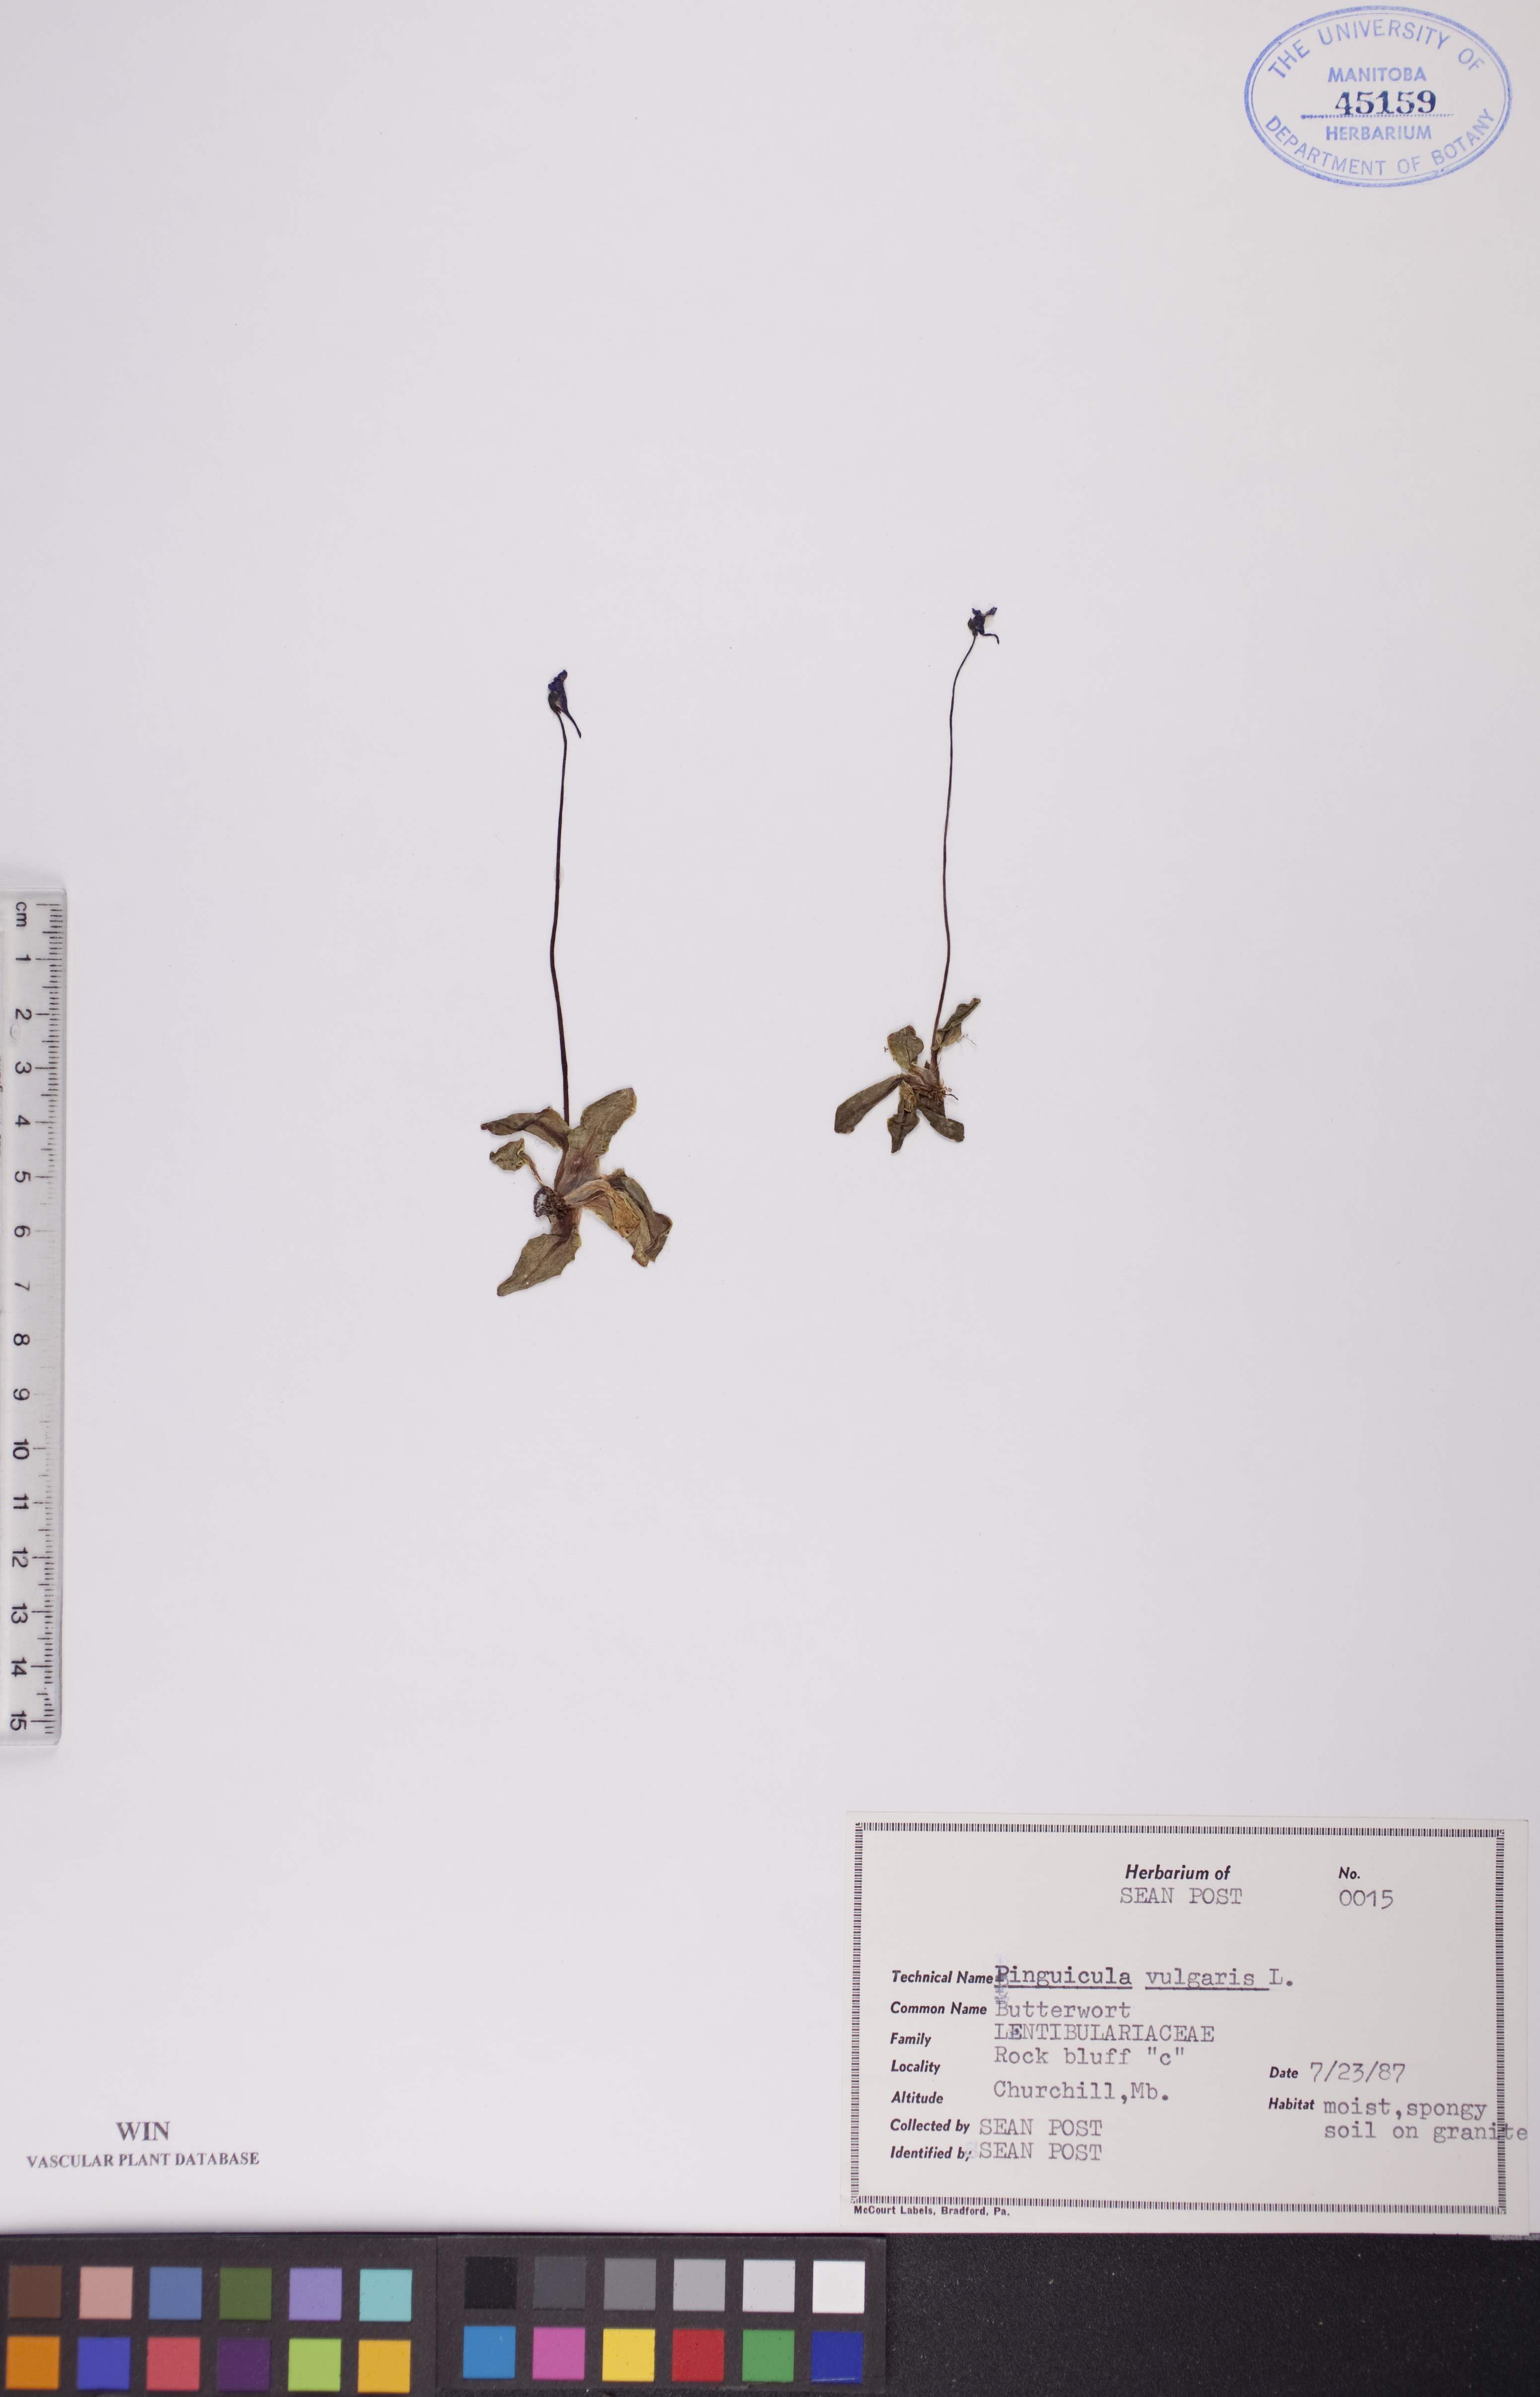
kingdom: Plantae
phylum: Tracheophyta
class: Magnoliopsida
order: Lamiales
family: Lentibulariaceae
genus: Pinguicula
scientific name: Pinguicula vulgaris
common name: Common butterwort
